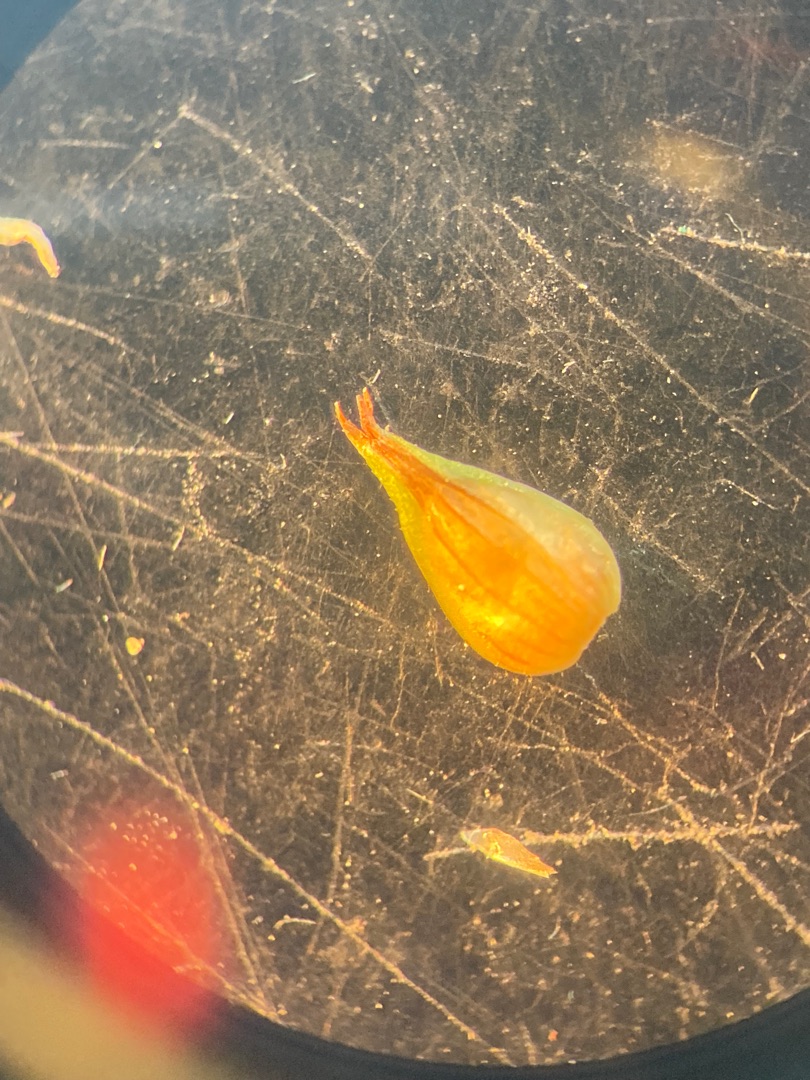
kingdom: Plantae
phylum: Tracheophyta
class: Liliopsida
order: Poales
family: Cyperaceae
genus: Carex
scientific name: Carex otrubae
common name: Sylt-star
